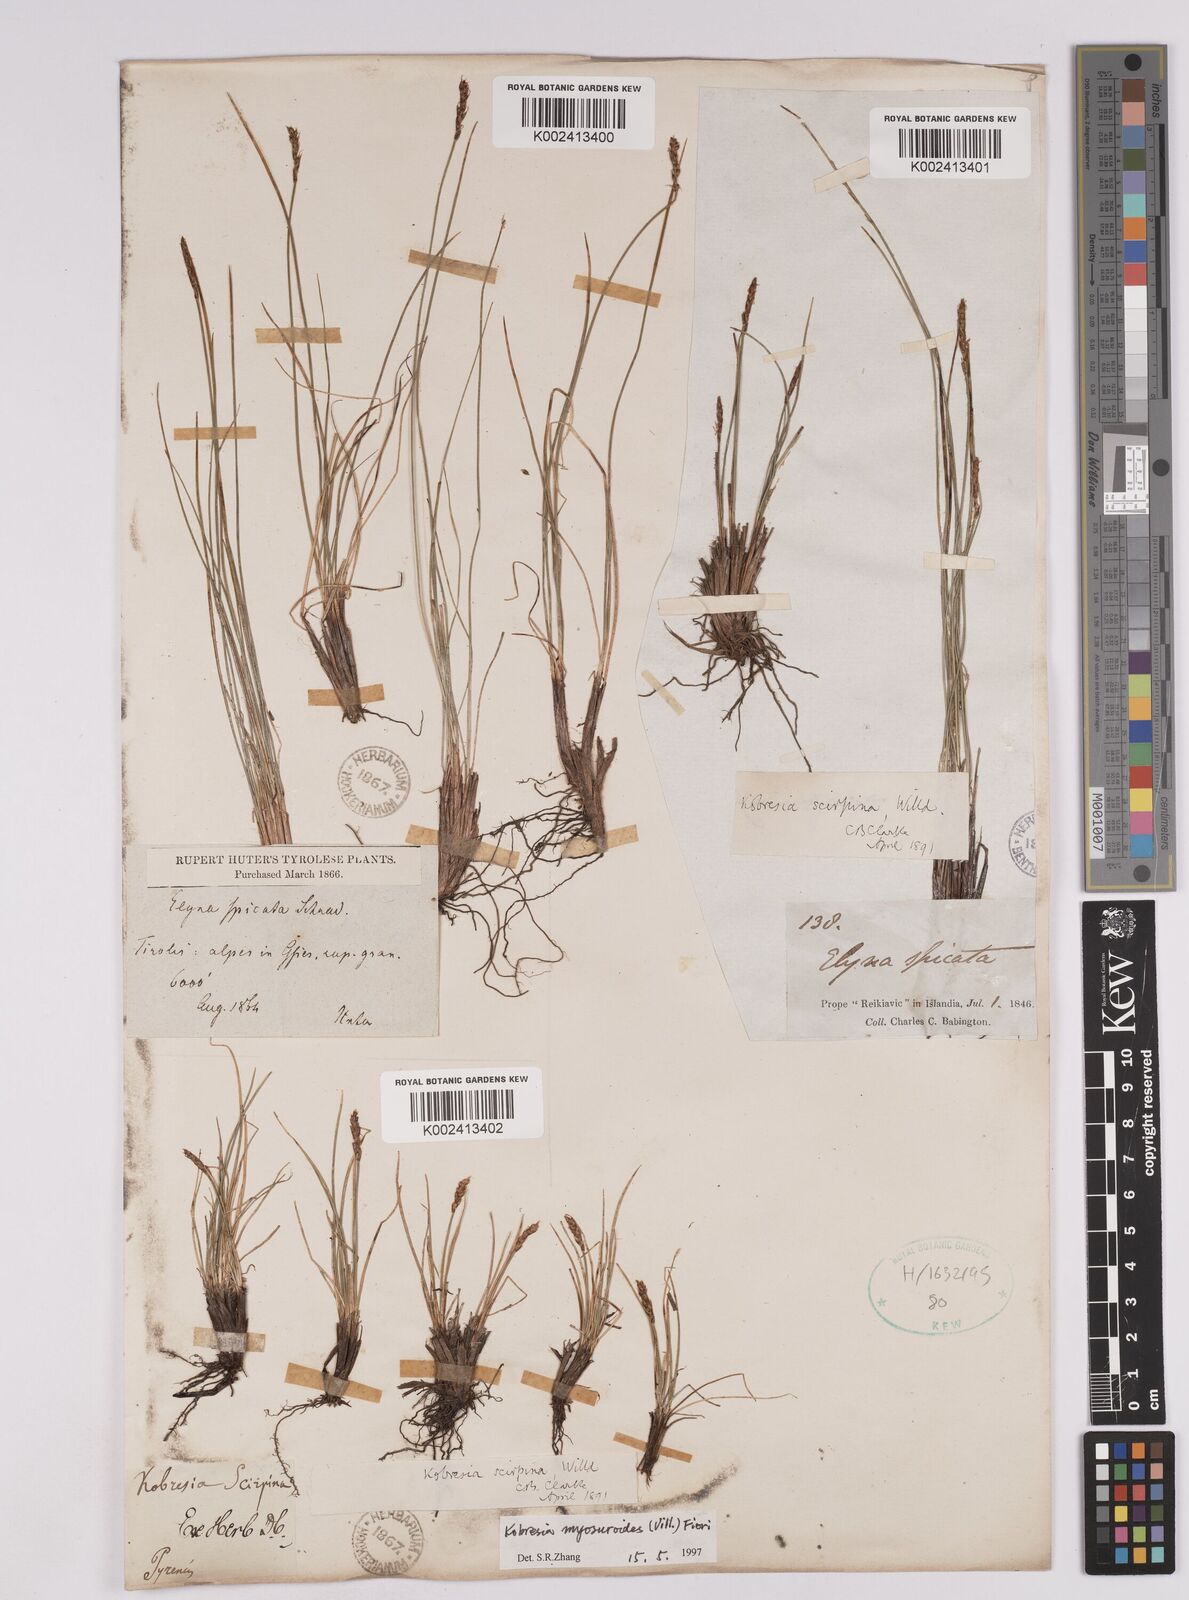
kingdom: Plantae
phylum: Tracheophyta
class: Liliopsida
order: Poales
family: Cyperaceae
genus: Carex
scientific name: Carex myosuroides
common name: Bellard's bog sedge
